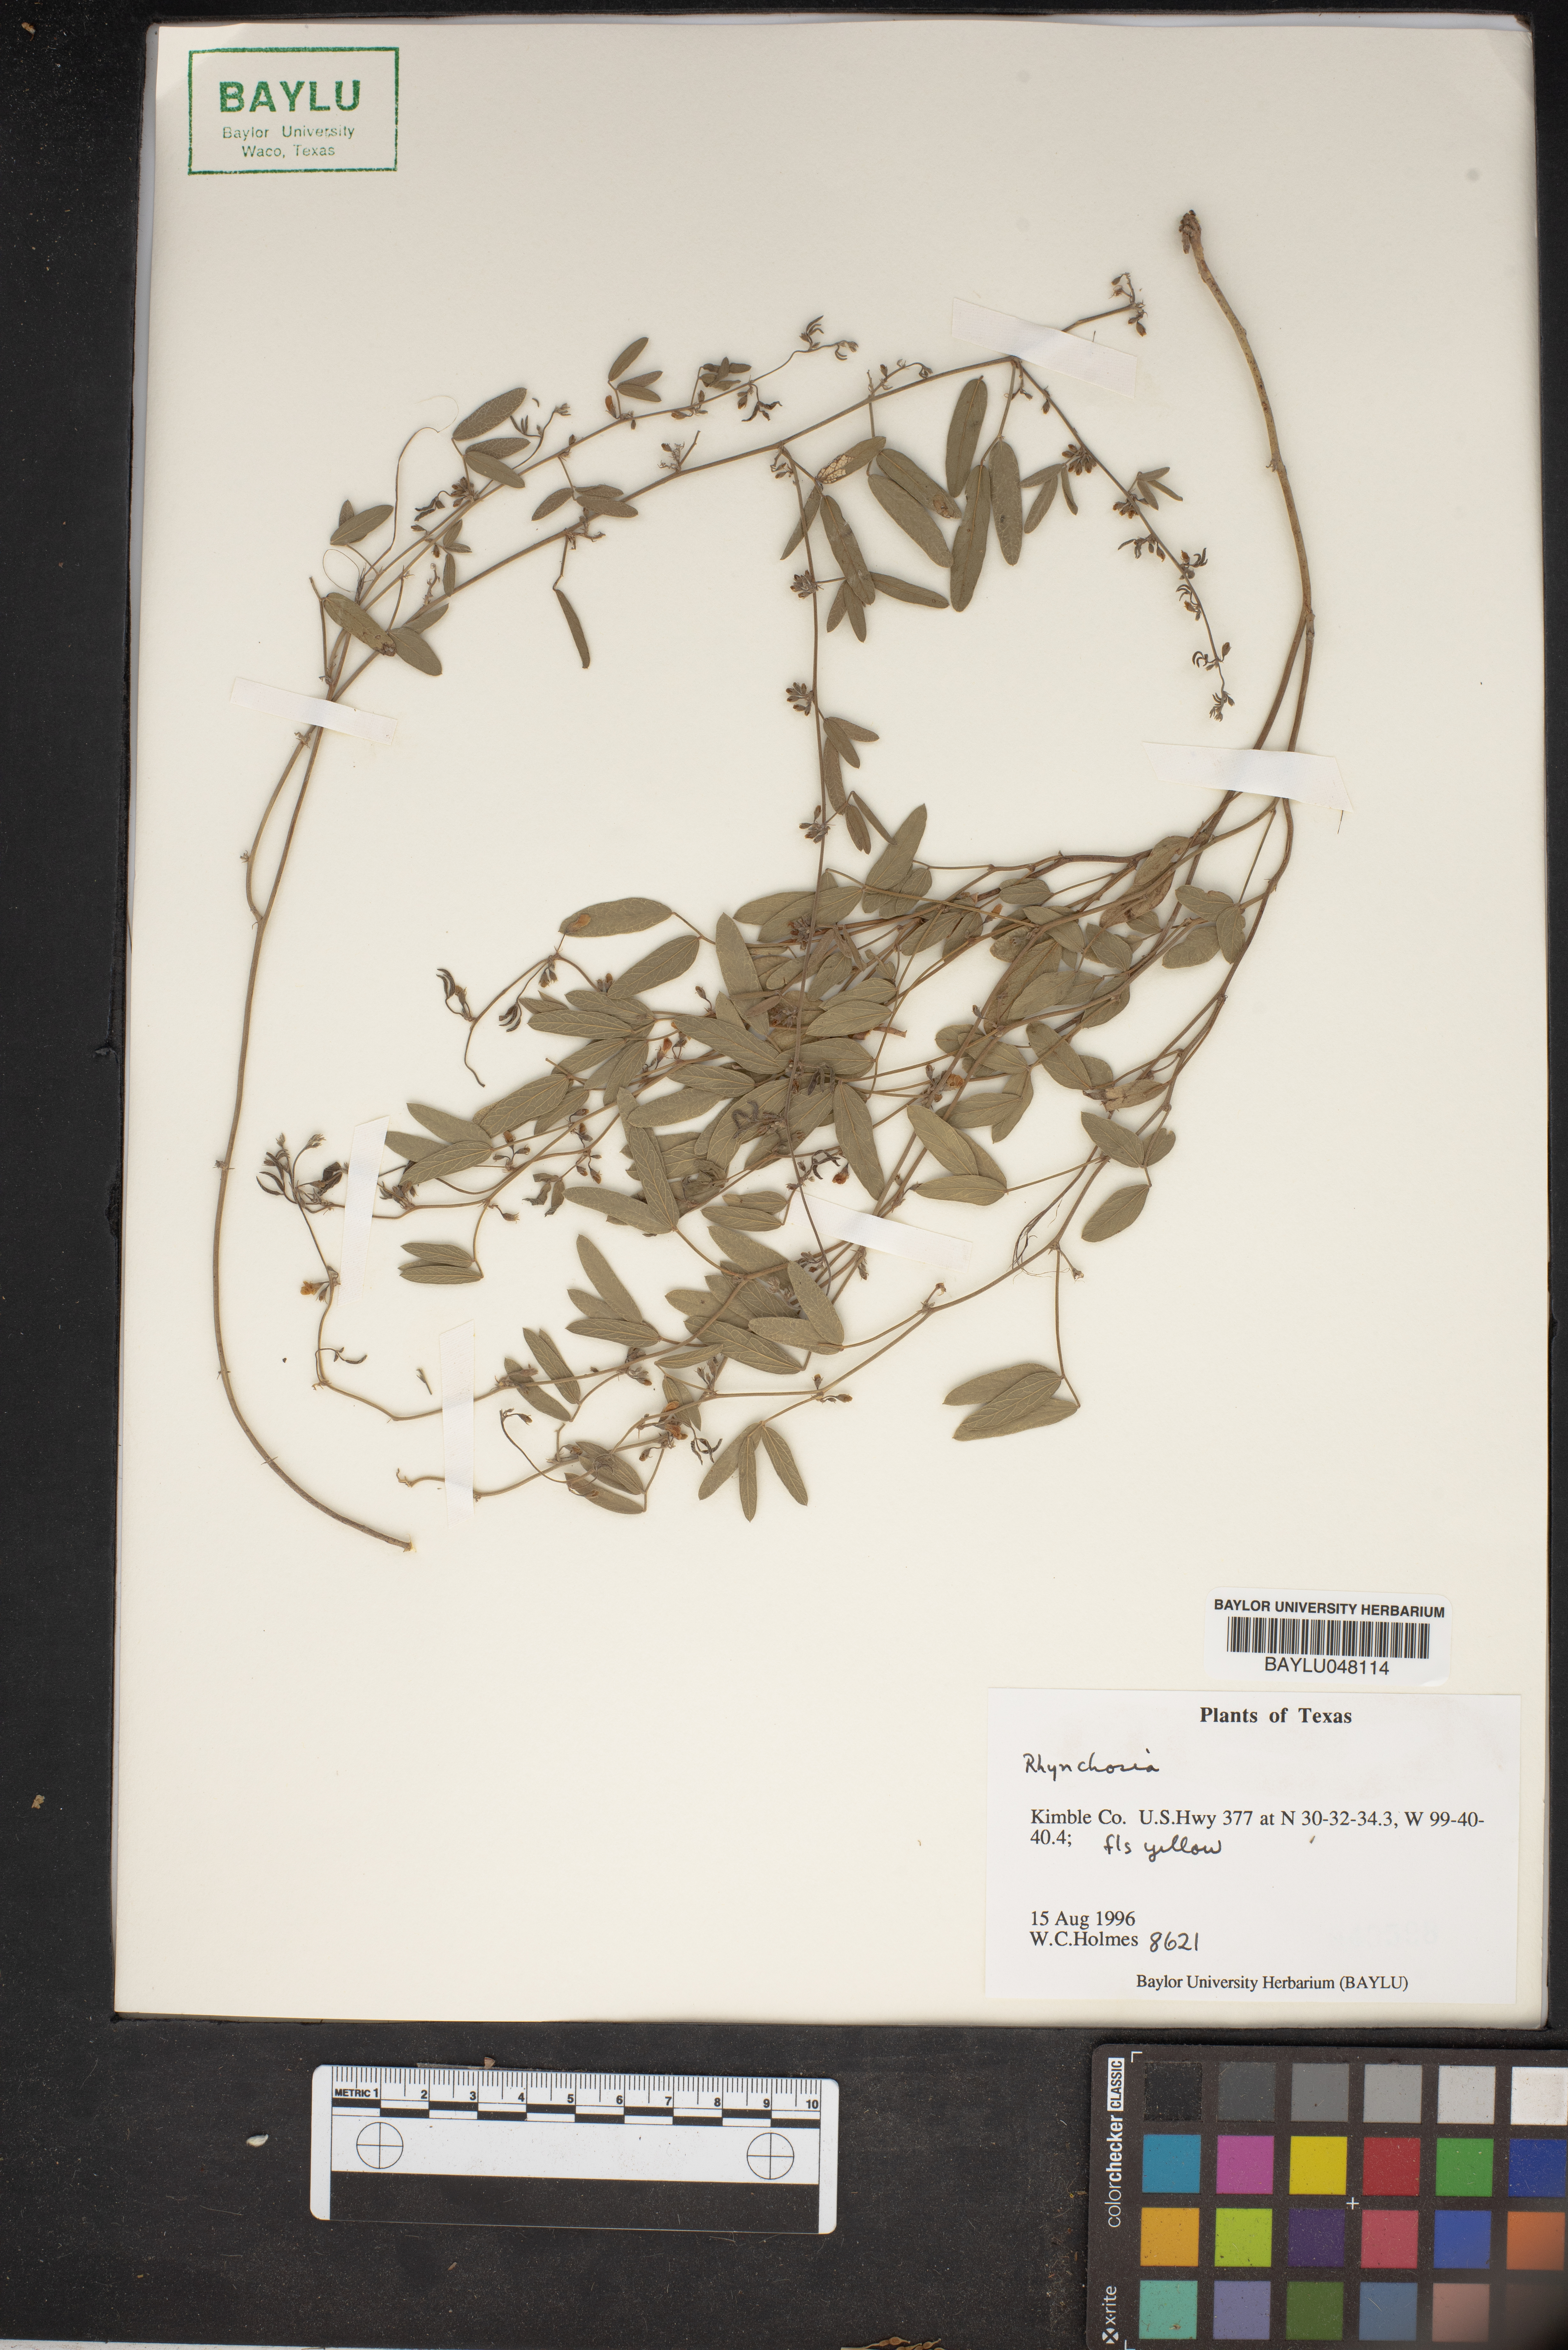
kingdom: Plantae
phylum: Tracheophyta
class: Magnoliopsida
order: Fabales
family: Fabaceae
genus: Rhynchosia
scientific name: Rhynchosia
